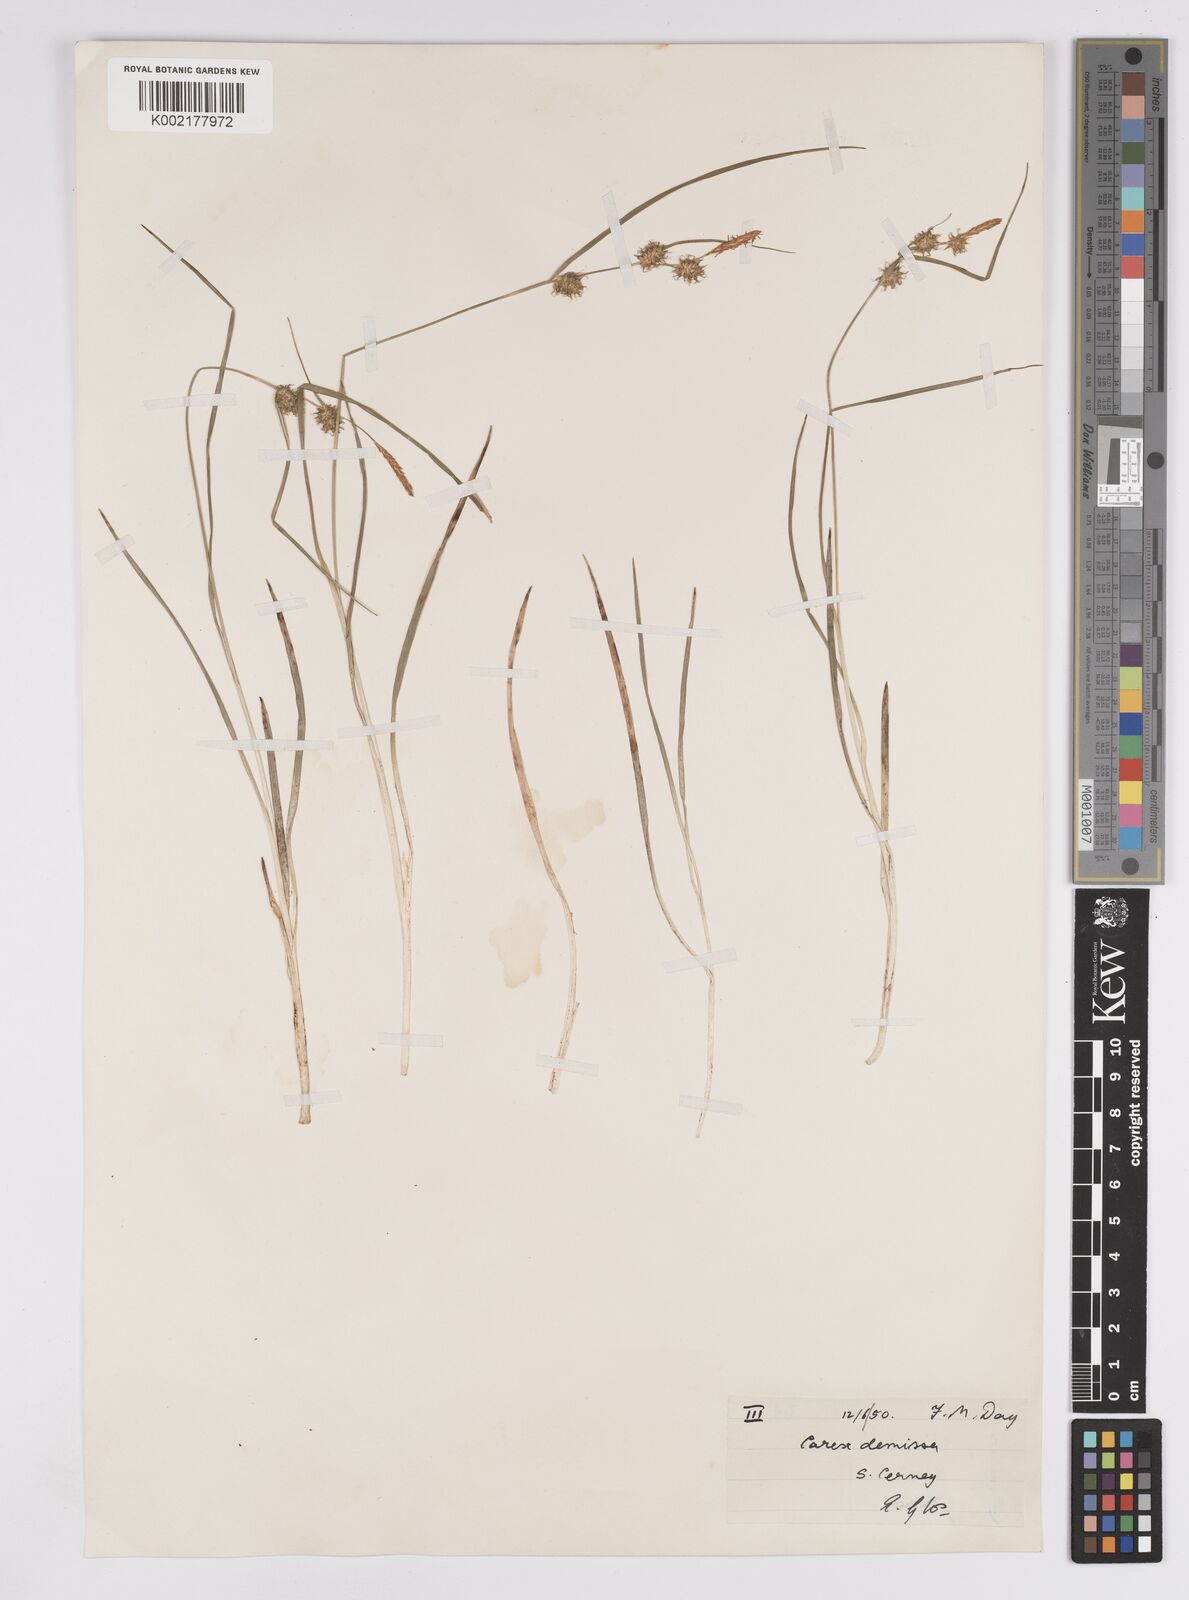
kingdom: Plantae
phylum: Tracheophyta
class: Liliopsida
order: Poales
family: Cyperaceae
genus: Carex
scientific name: Carex demissa
